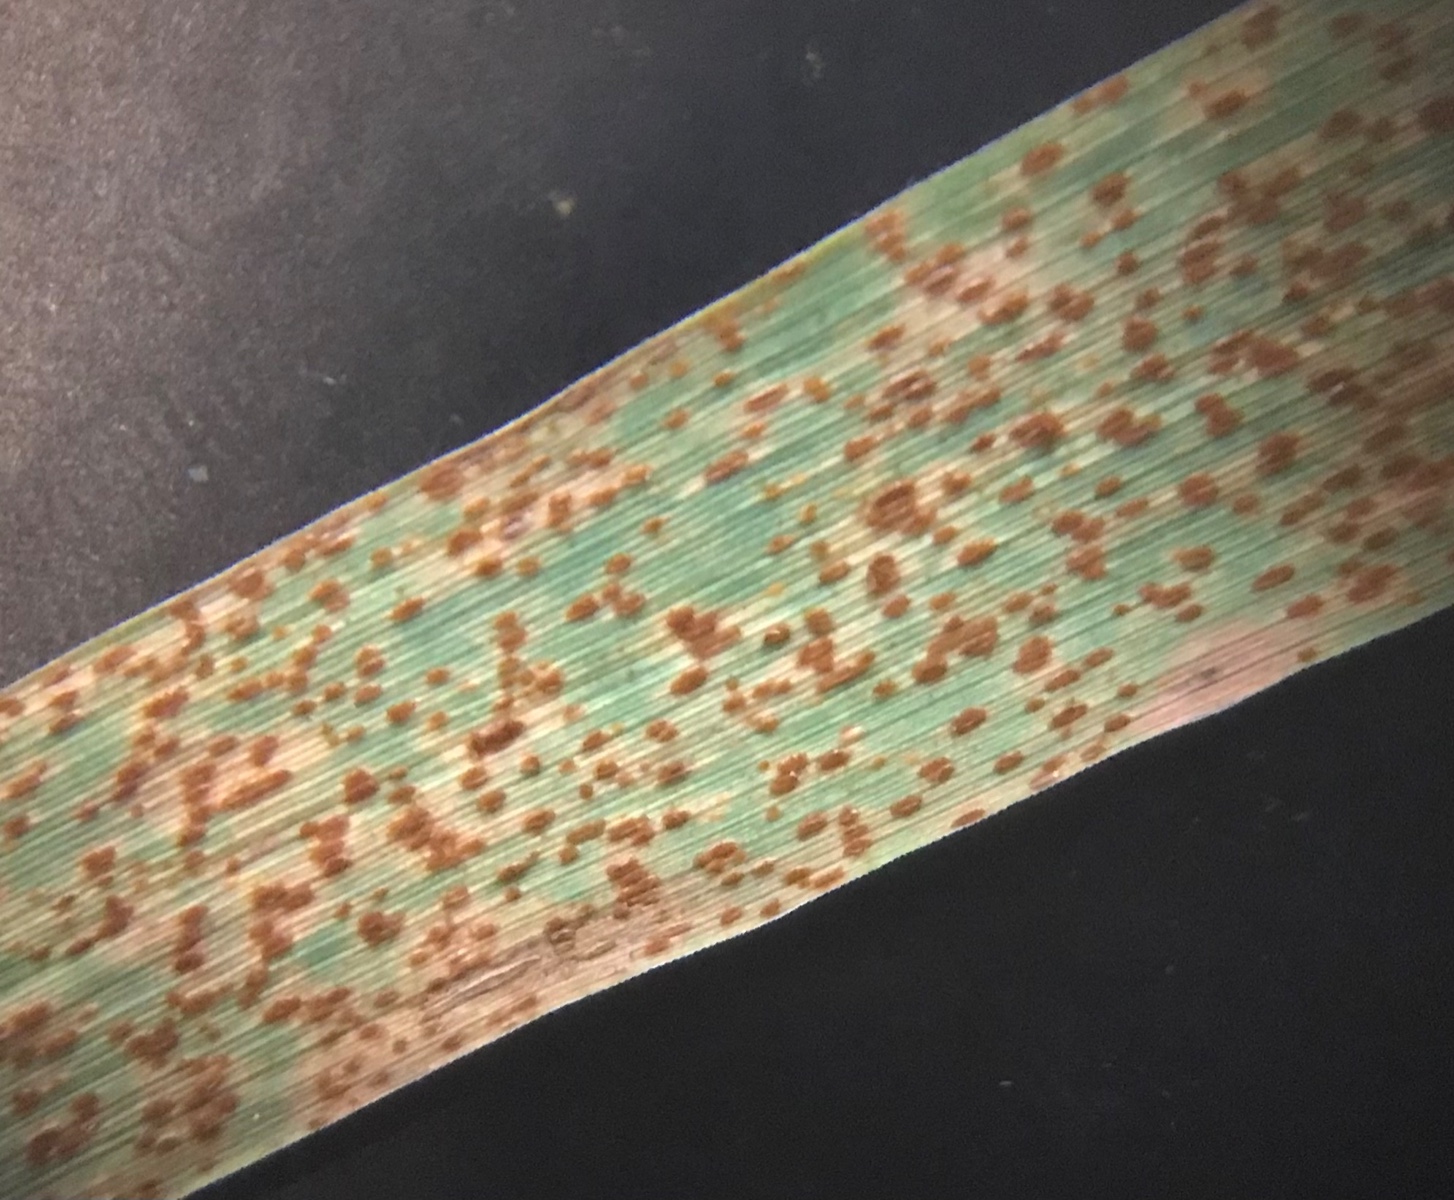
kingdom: Fungi
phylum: Basidiomycota
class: Pucciniomycetes
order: Pucciniales
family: Pucciniaceae
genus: Puccinia
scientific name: Puccinia
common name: tvecellerust
